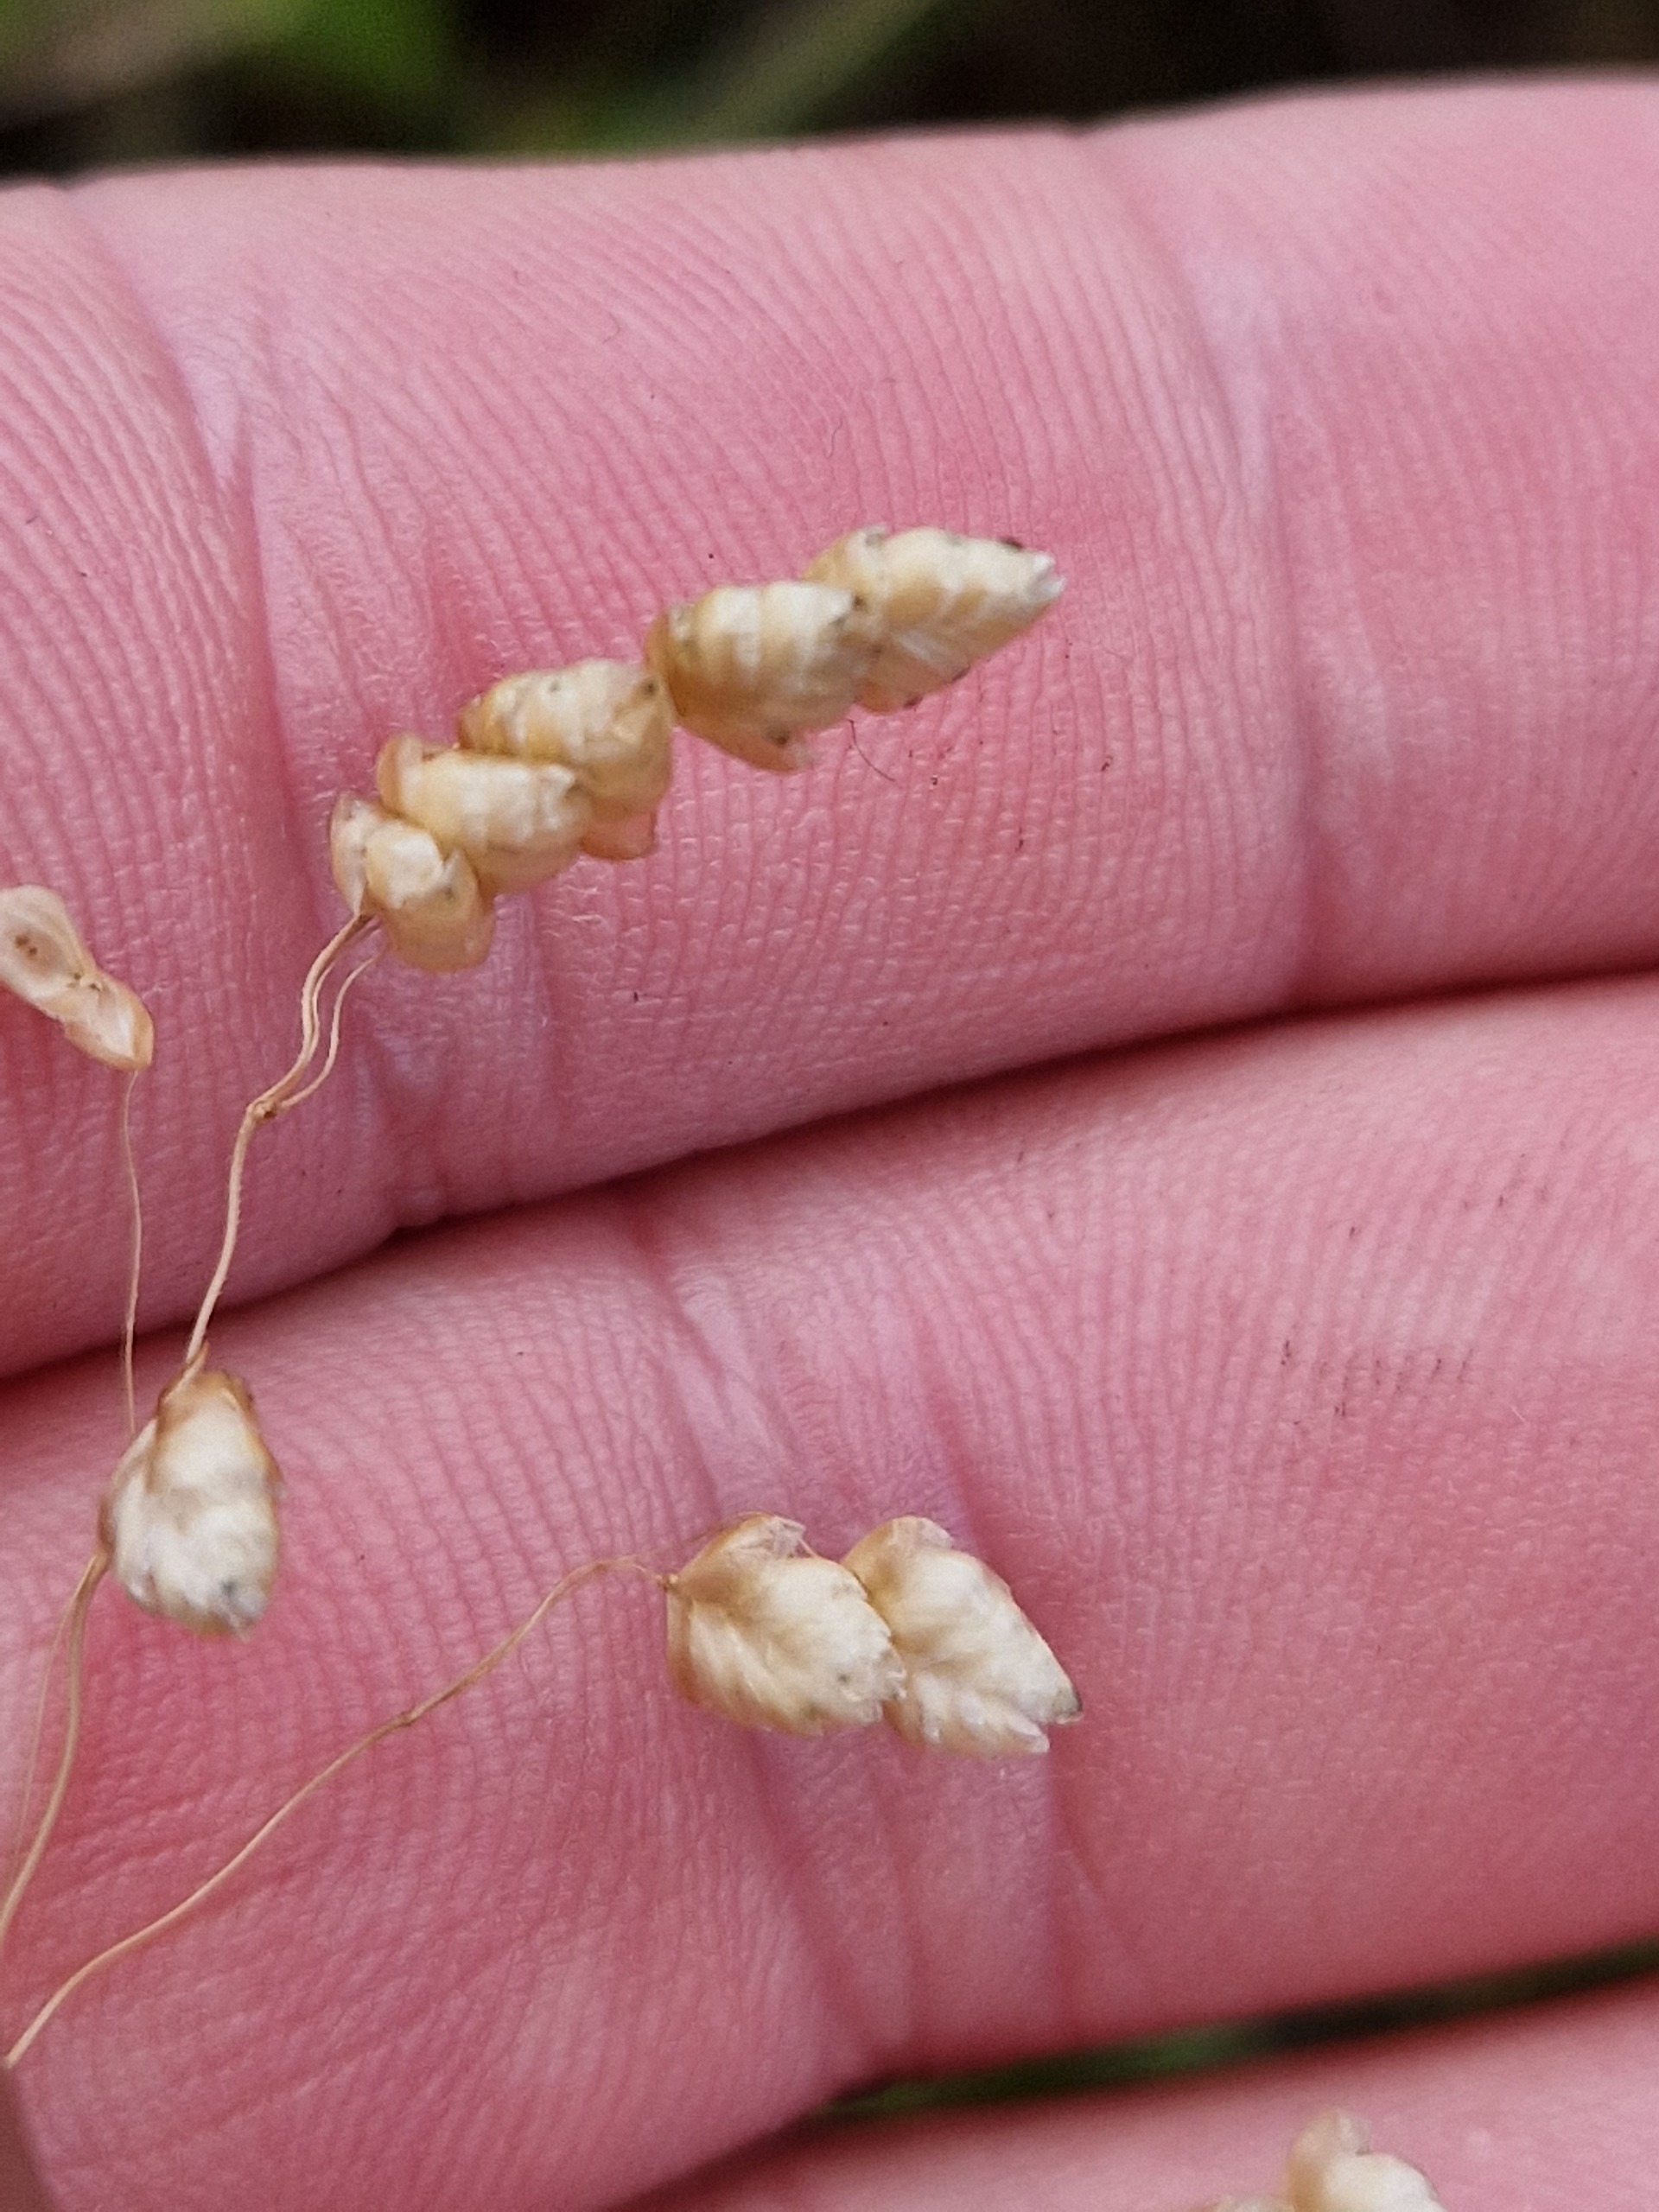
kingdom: Plantae
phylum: Tracheophyta
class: Liliopsida
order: Poales
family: Poaceae
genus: Briza
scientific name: Briza media
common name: Hjertegræs
